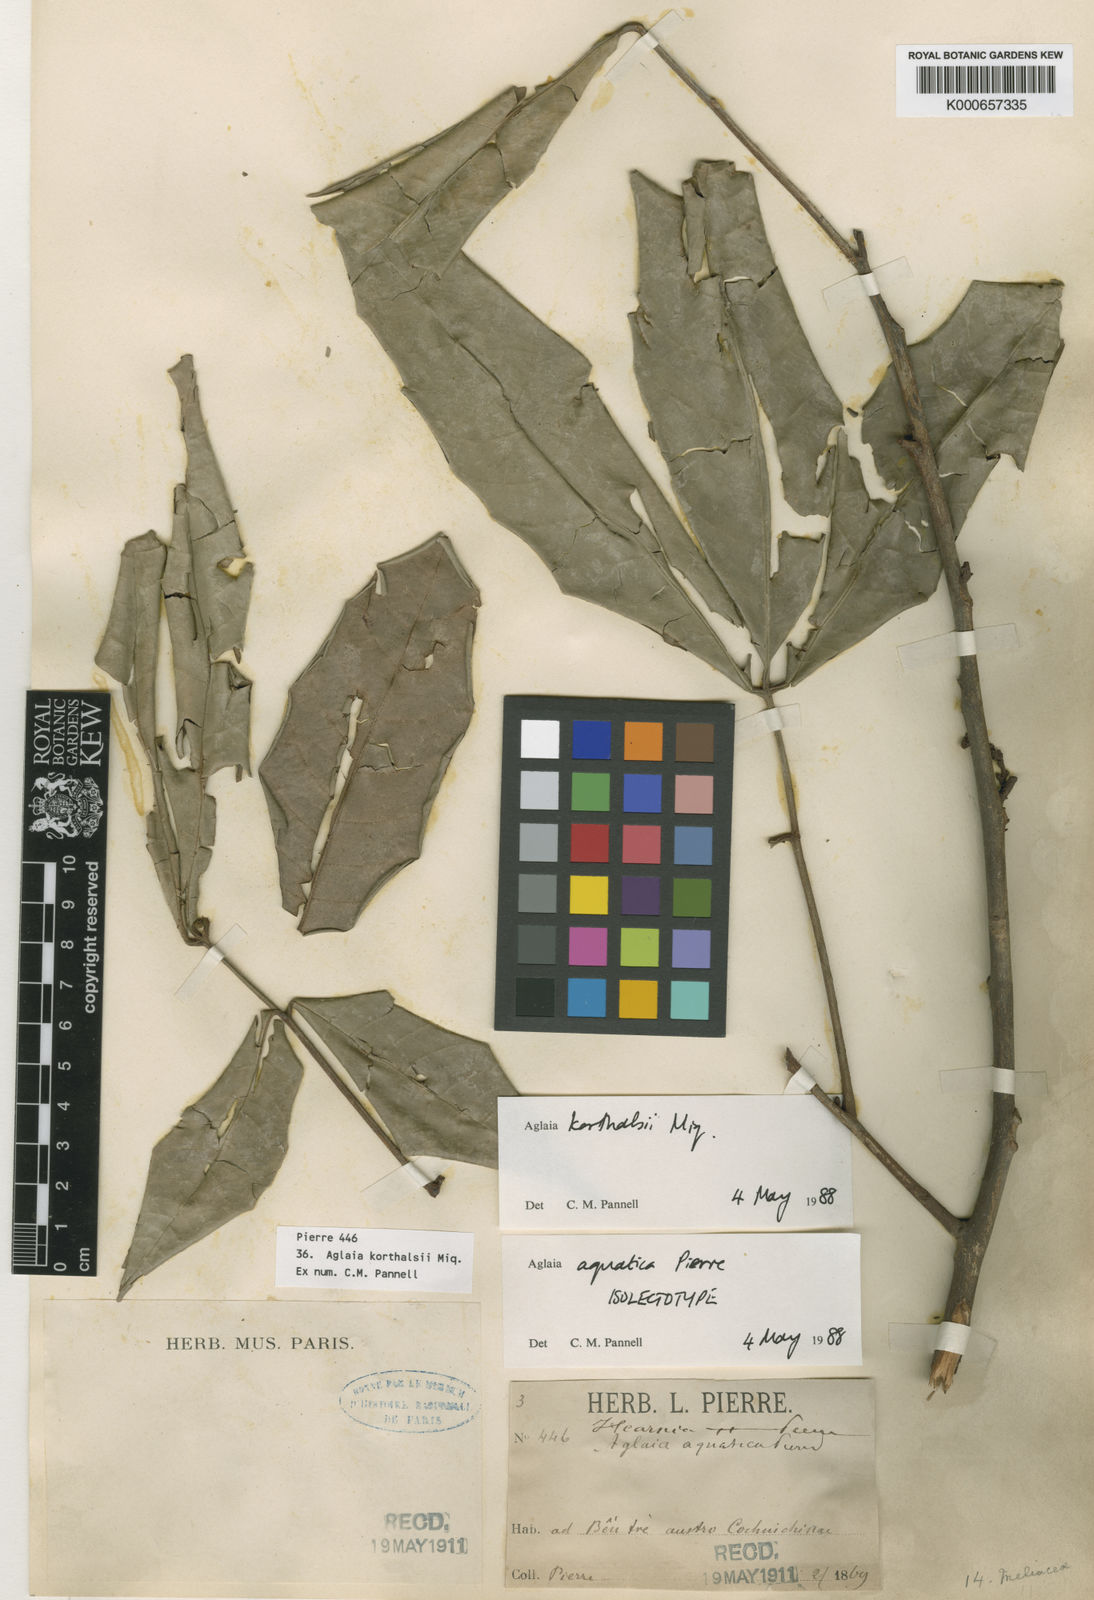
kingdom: Plantae
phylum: Tracheophyta
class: Magnoliopsida
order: Sapindales
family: Meliaceae
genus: Aglaia
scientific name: Aglaia korthalsii
